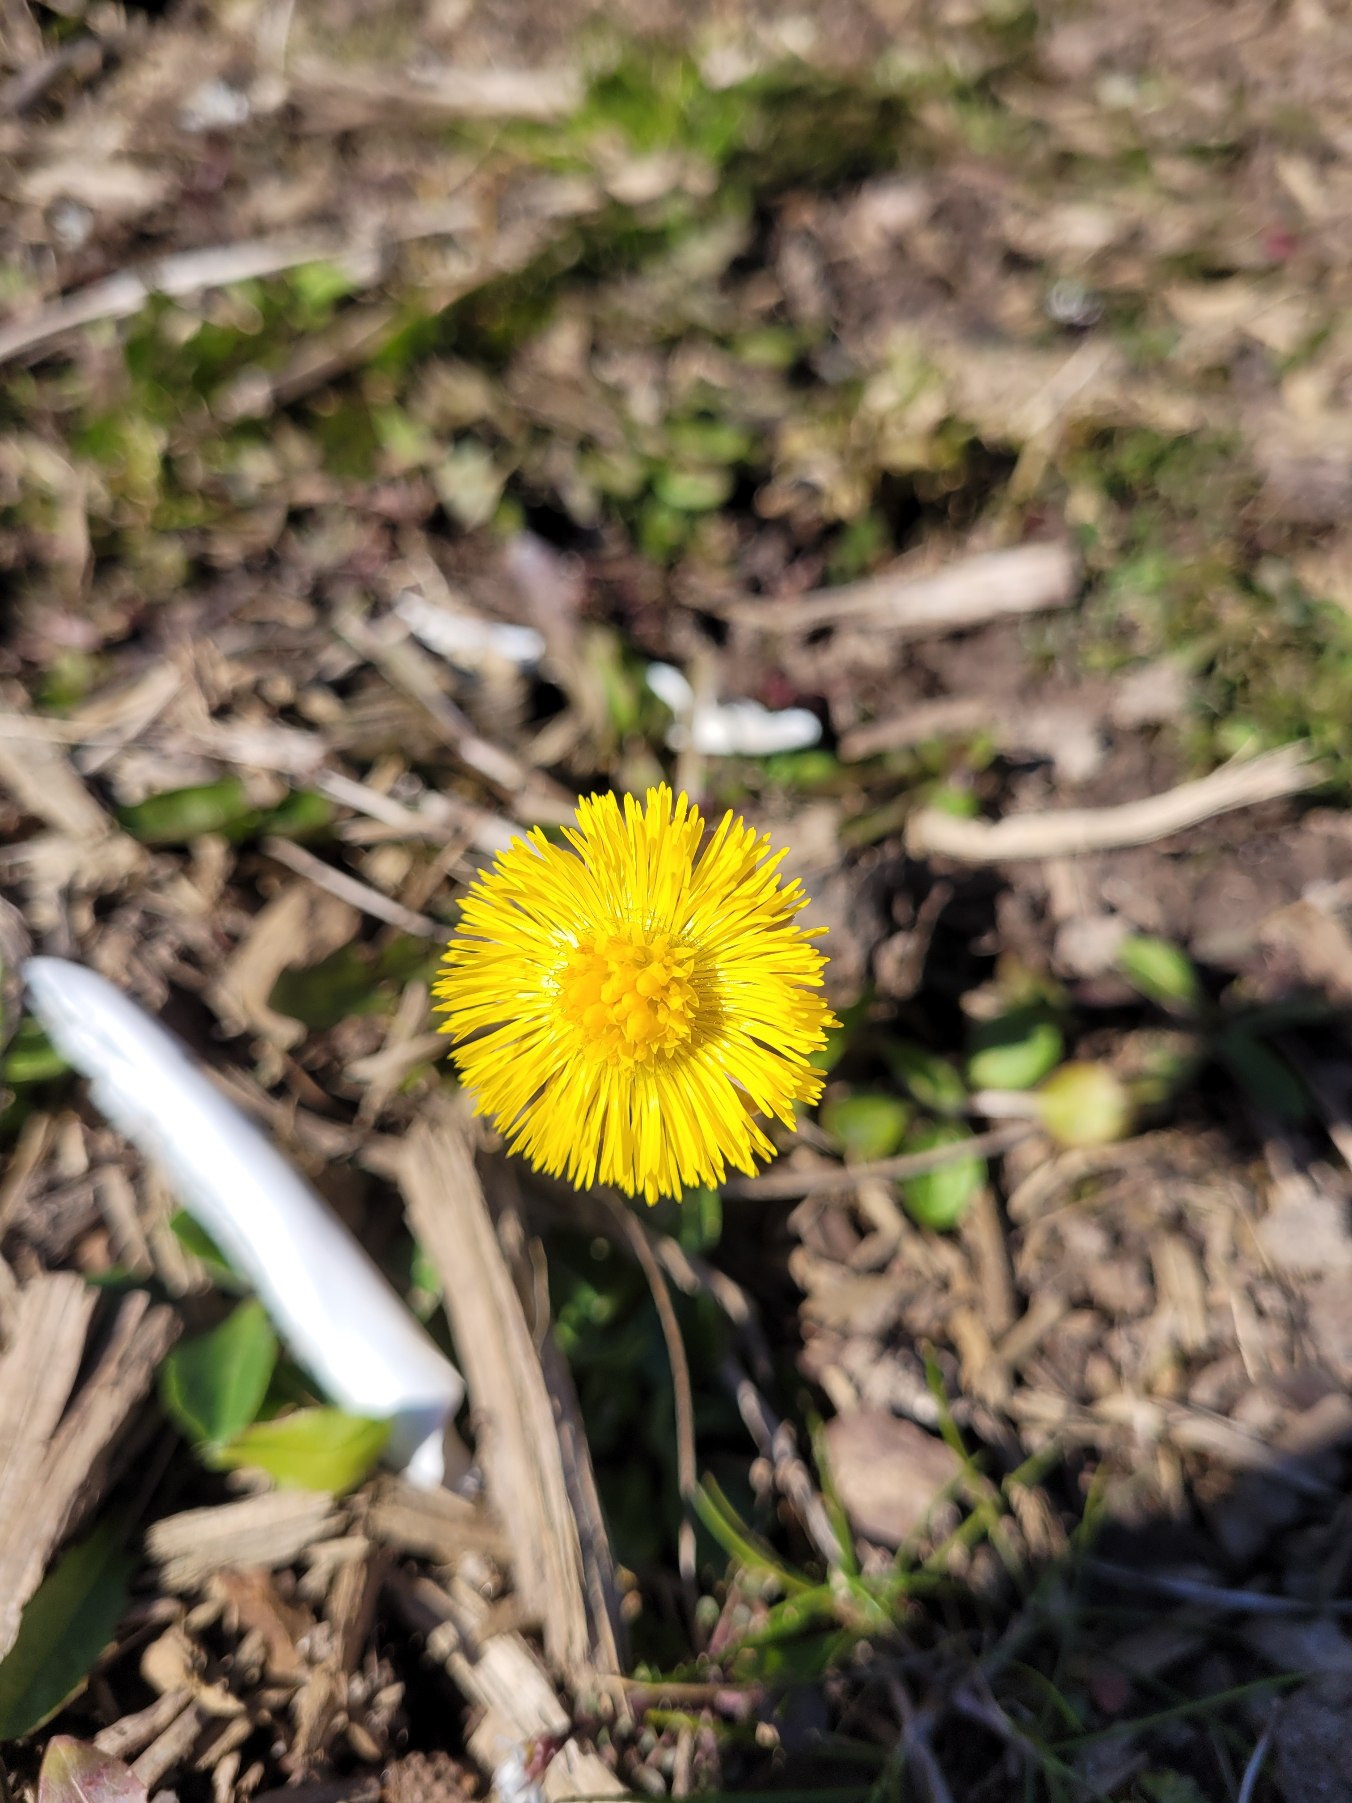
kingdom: Plantae
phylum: Tracheophyta
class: Magnoliopsida
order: Asterales
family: Asteraceae
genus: Tussilago
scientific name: Tussilago farfara
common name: Følfod
